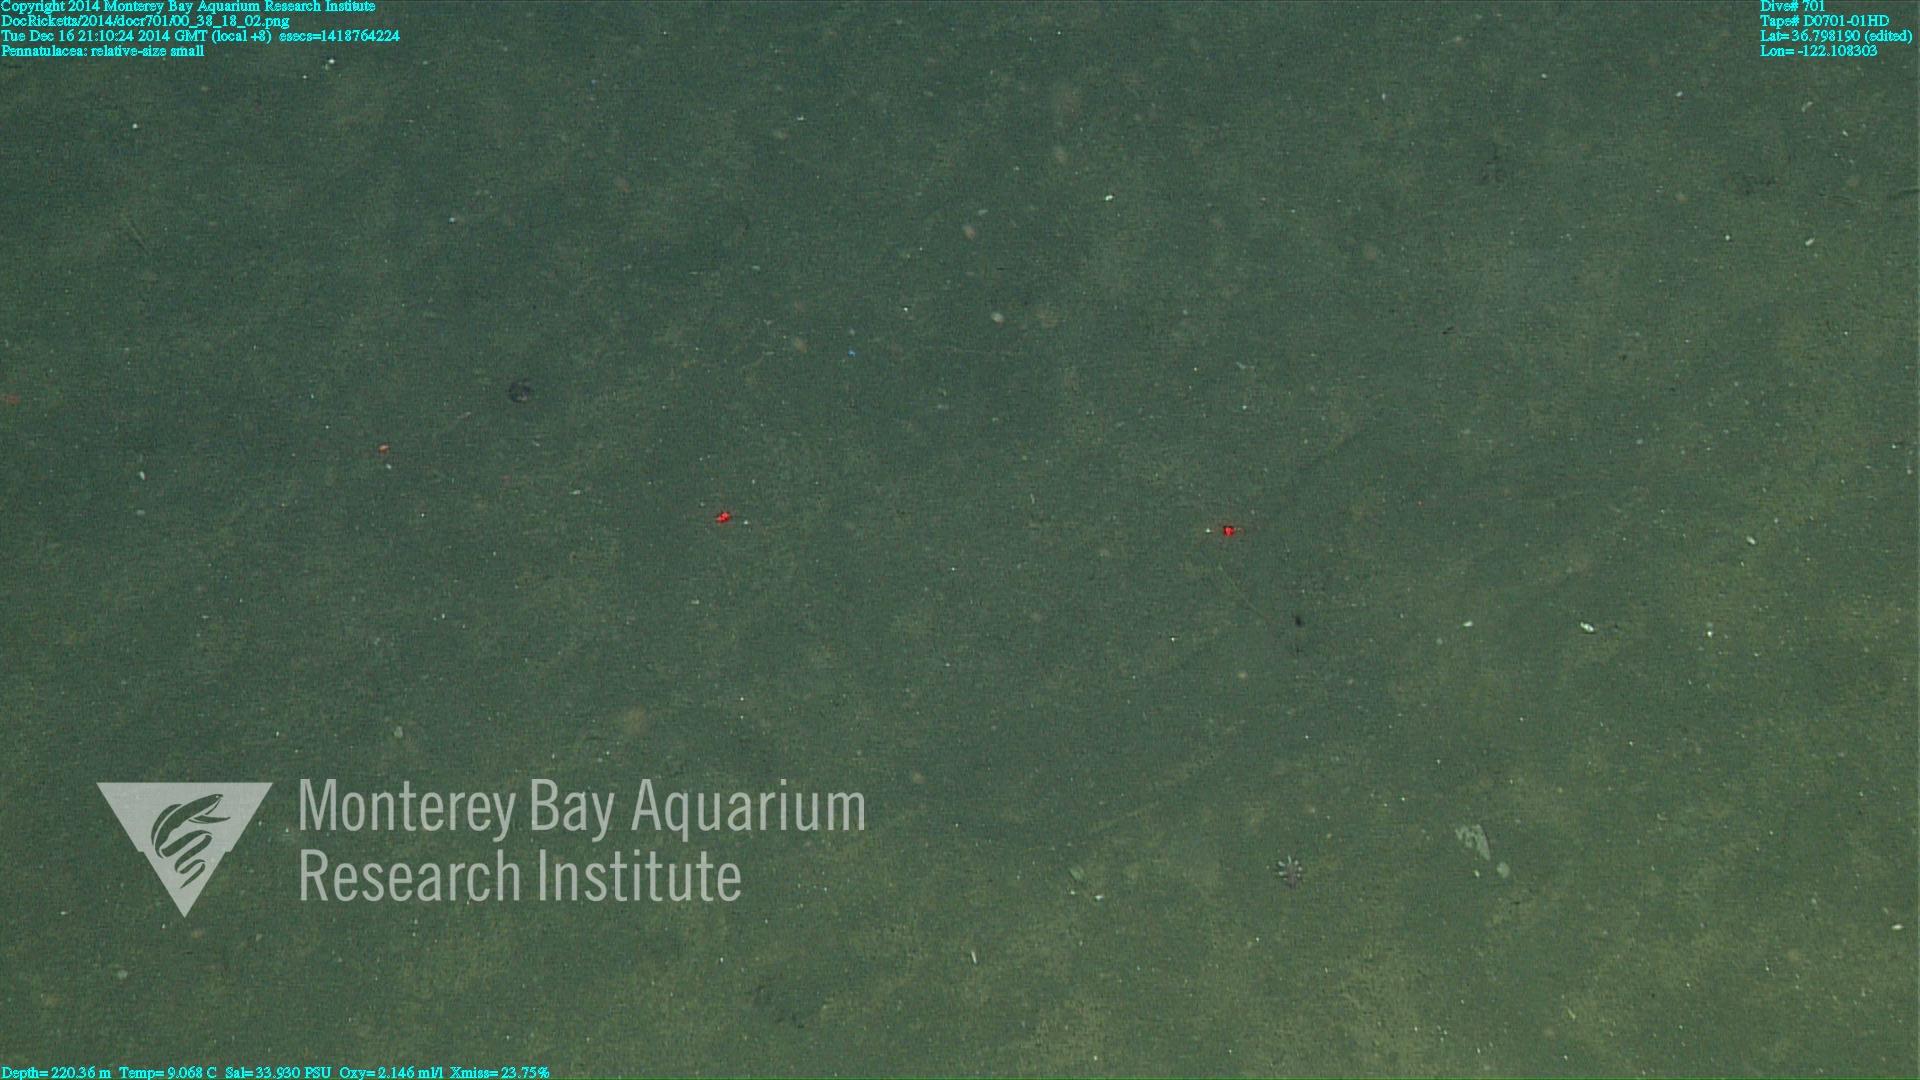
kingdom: Animalia
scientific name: Animalia
